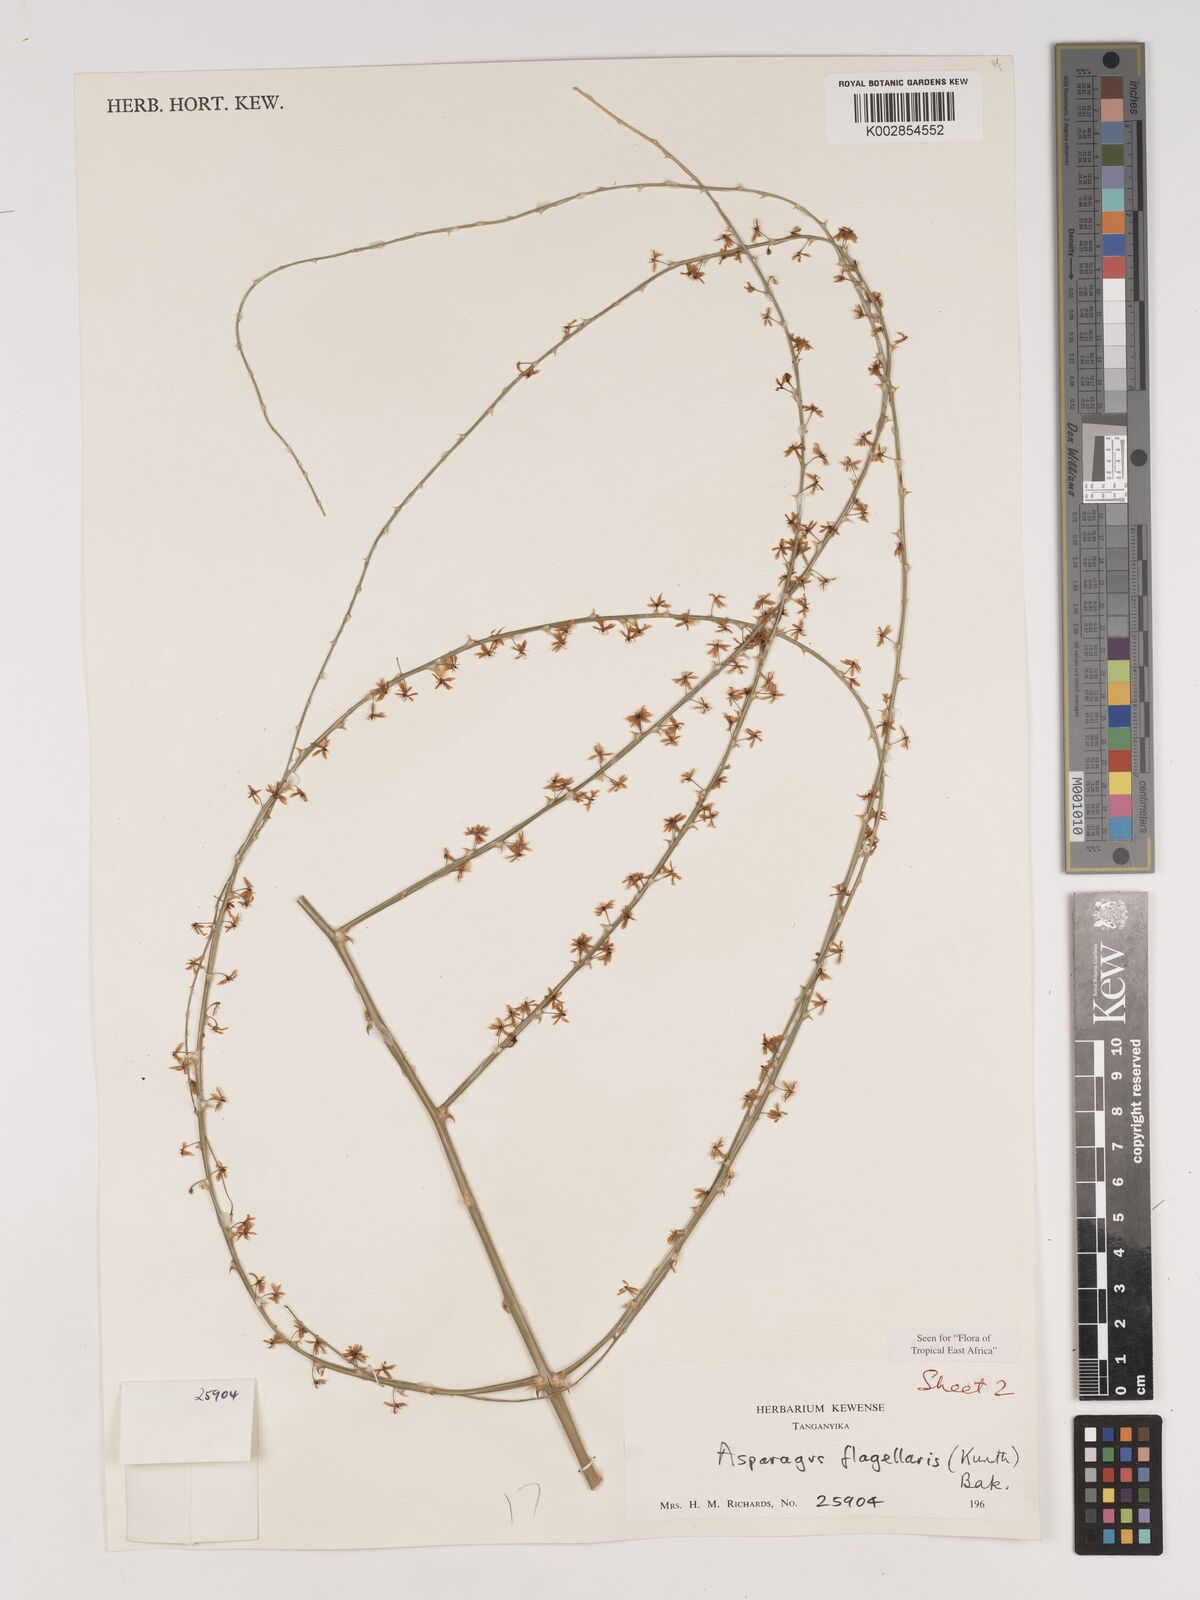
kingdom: Plantae
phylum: Tracheophyta
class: Liliopsida
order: Asparagales
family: Asparagaceae
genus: Asparagus
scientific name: Asparagus flagellaris
